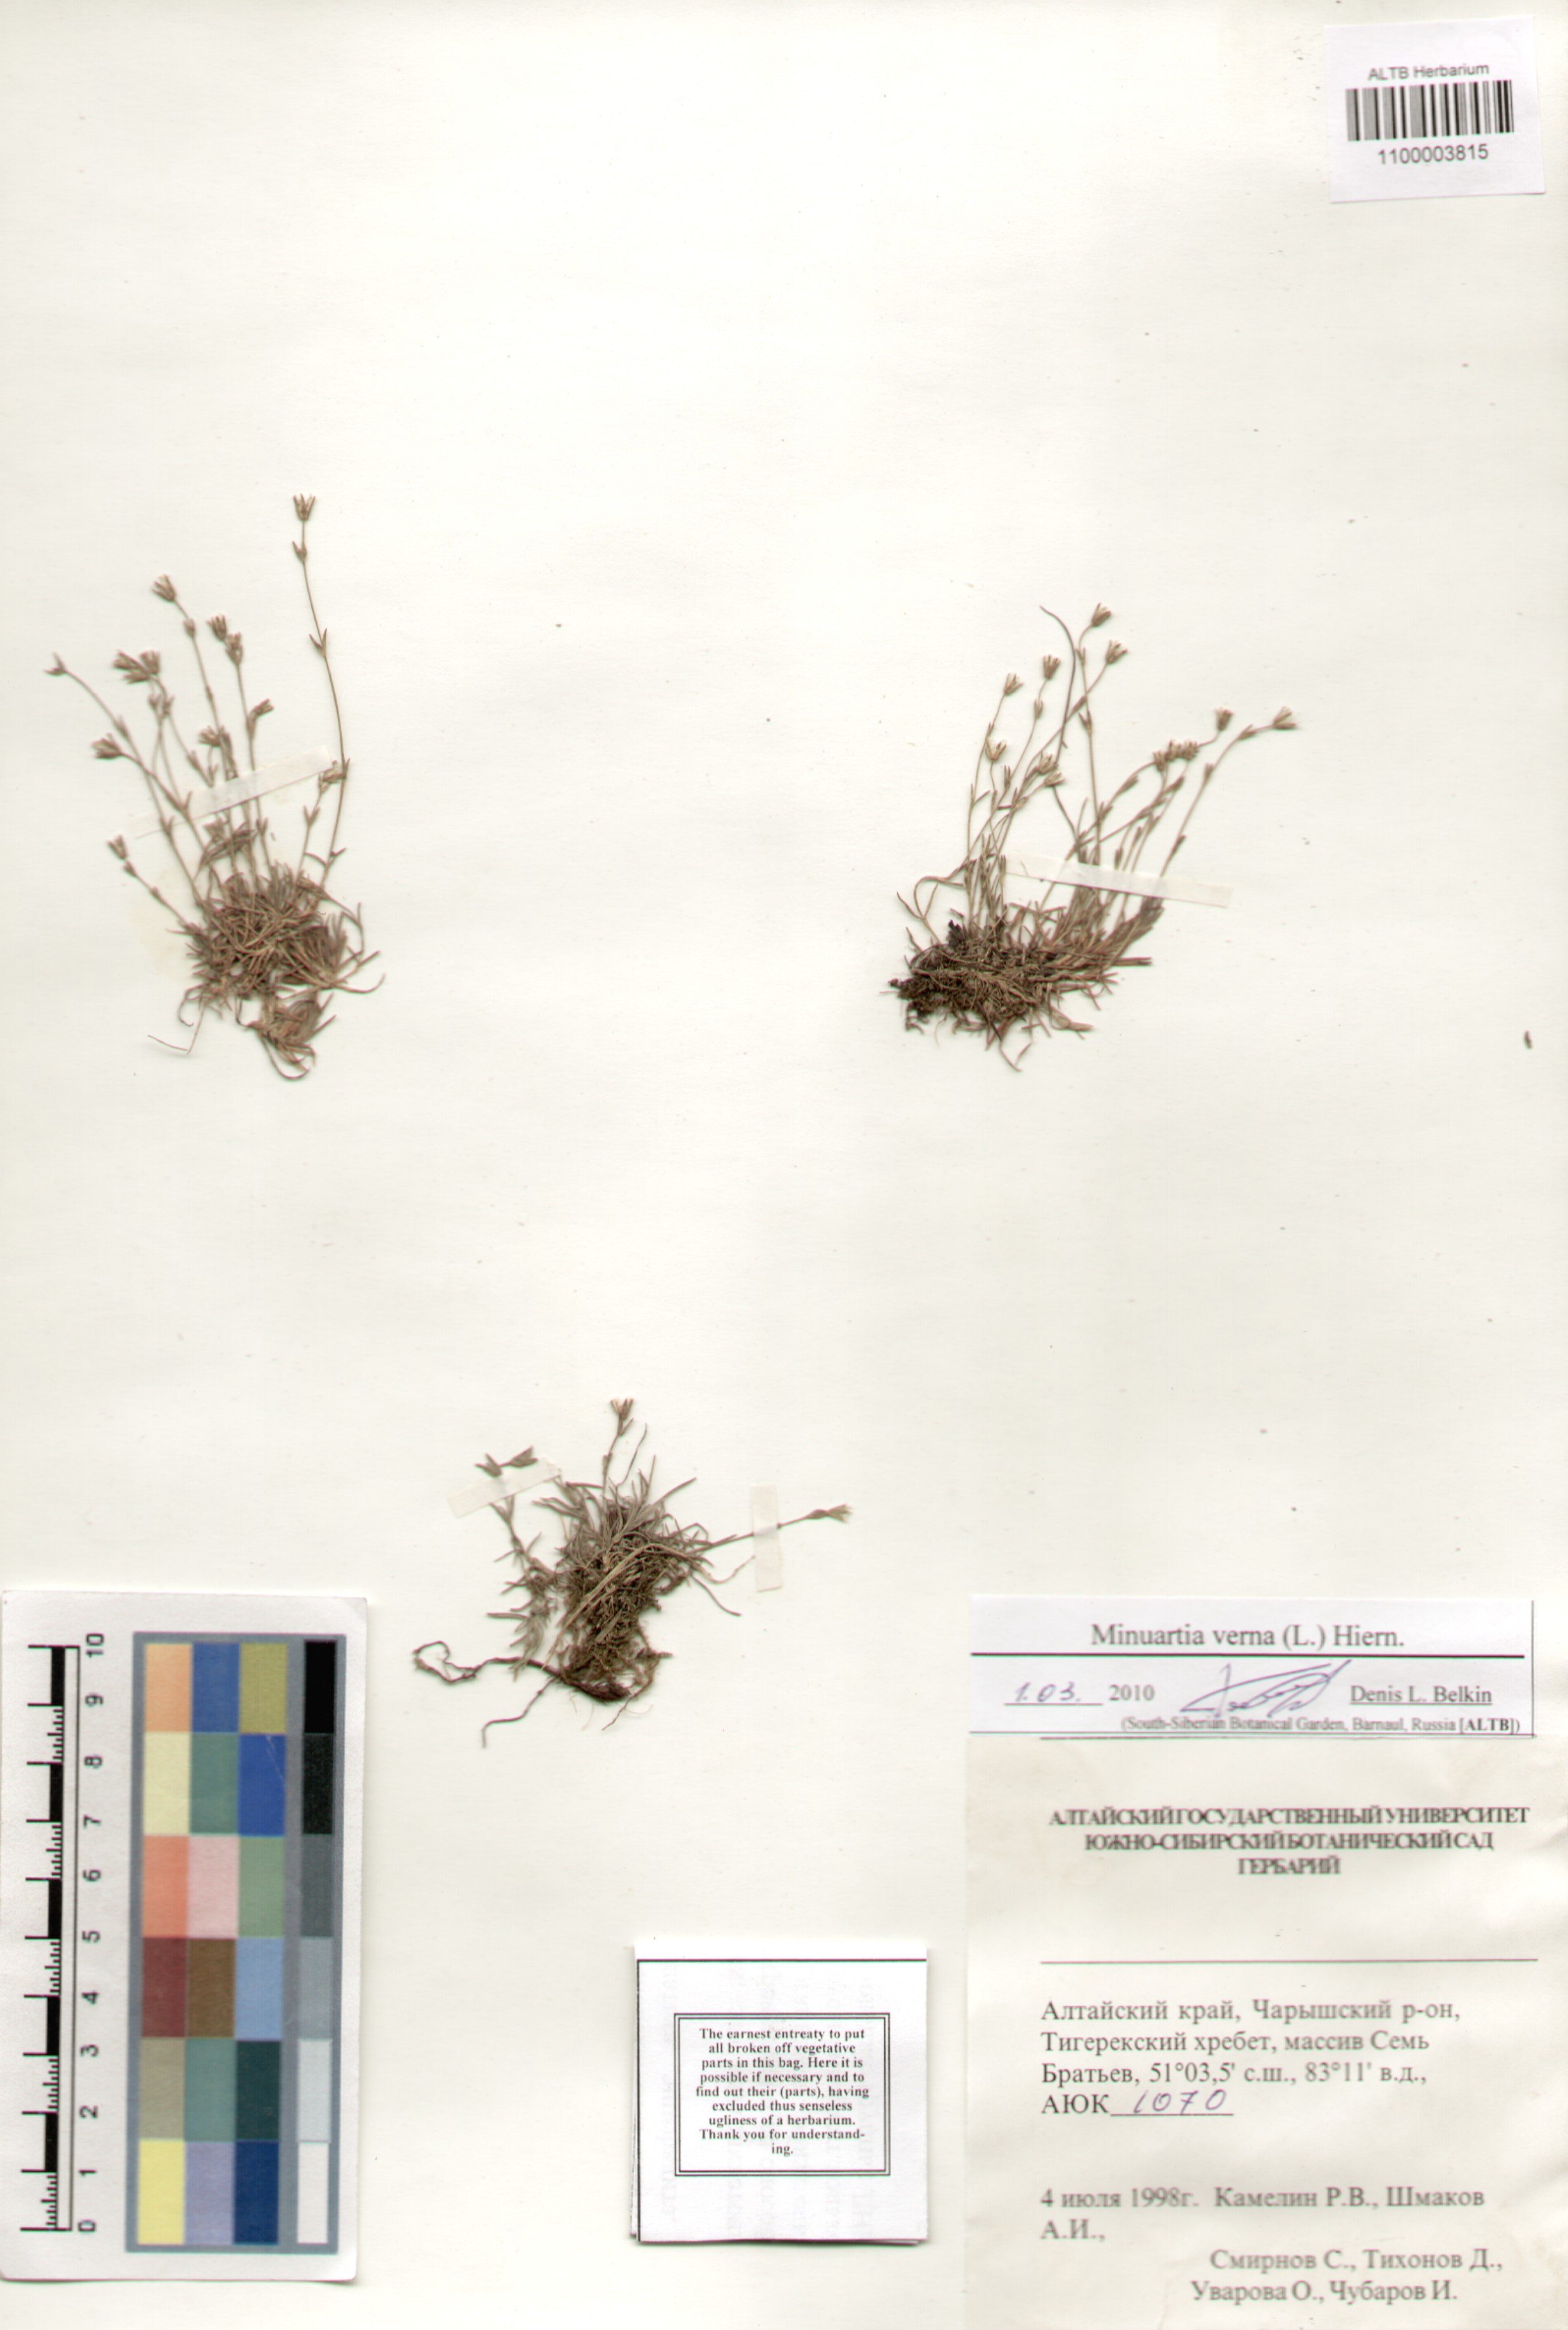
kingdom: Plantae
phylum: Tracheophyta
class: Magnoliopsida
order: Caryophyllales
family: Caryophyllaceae
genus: Sabulina
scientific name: Sabulina verna
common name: Spring sandwort
